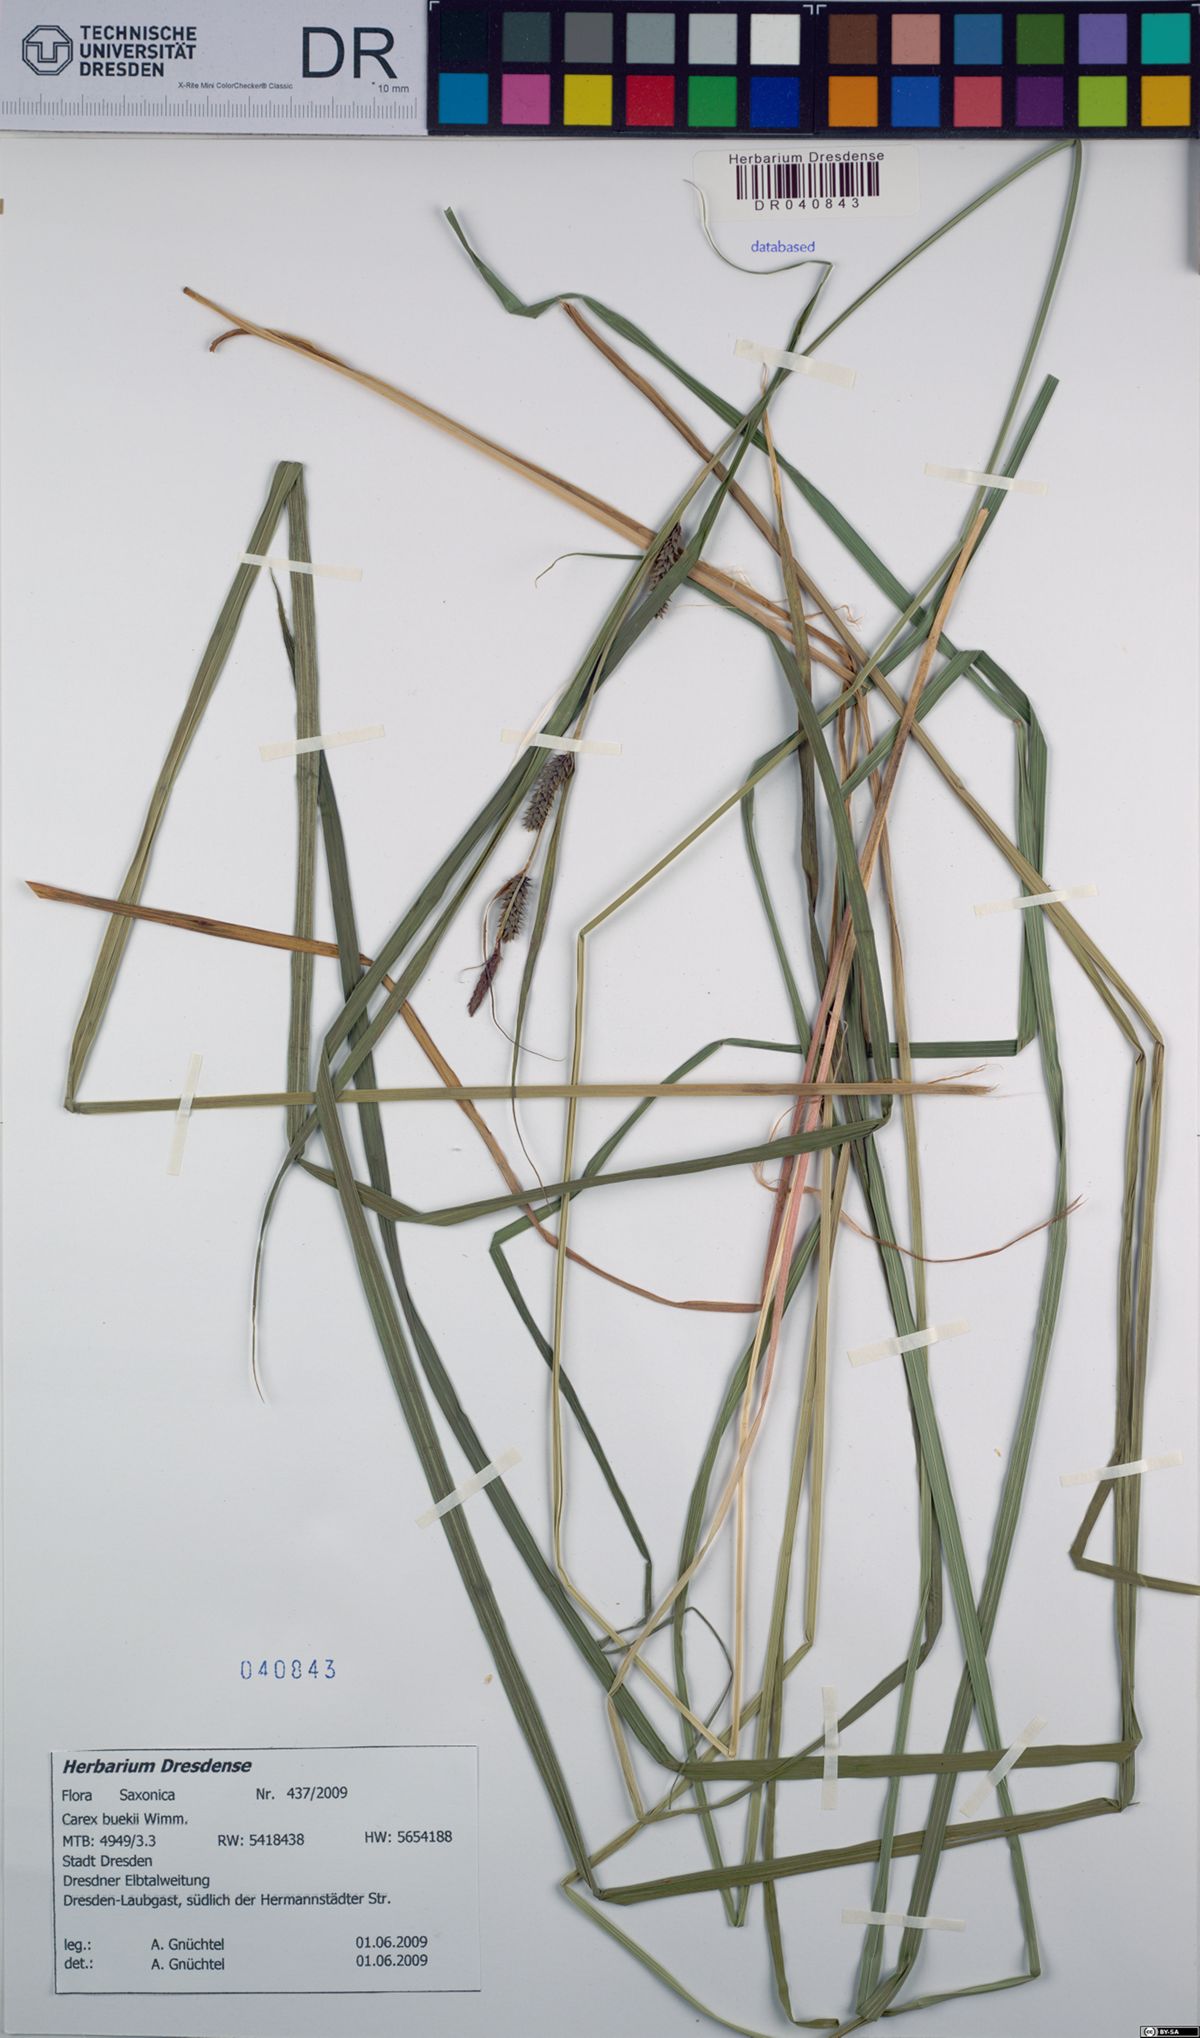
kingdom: Plantae
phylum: Tracheophyta
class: Liliopsida
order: Poales
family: Cyperaceae
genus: Carex
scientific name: Carex buekii
